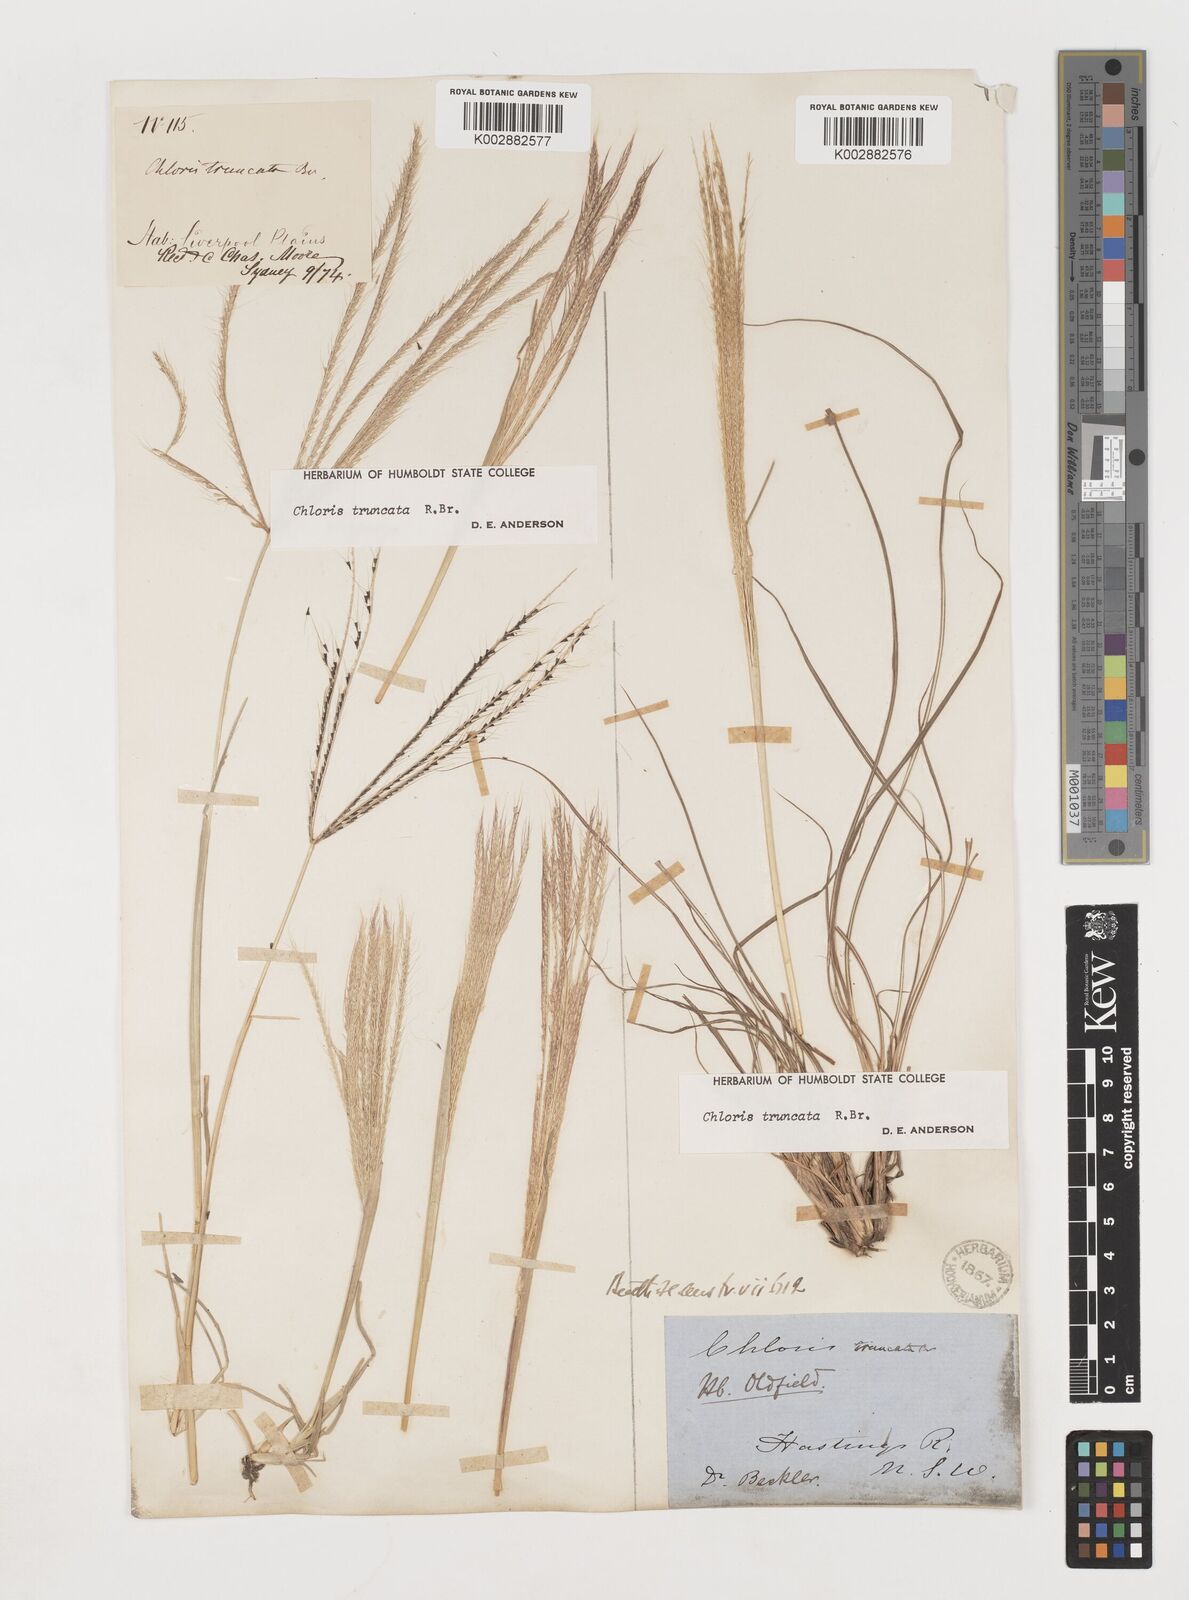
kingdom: Plantae
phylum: Tracheophyta
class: Liliopsida
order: Poales
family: Poaceae
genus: Chloris
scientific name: Chloris truncata
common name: Windmill-grass
